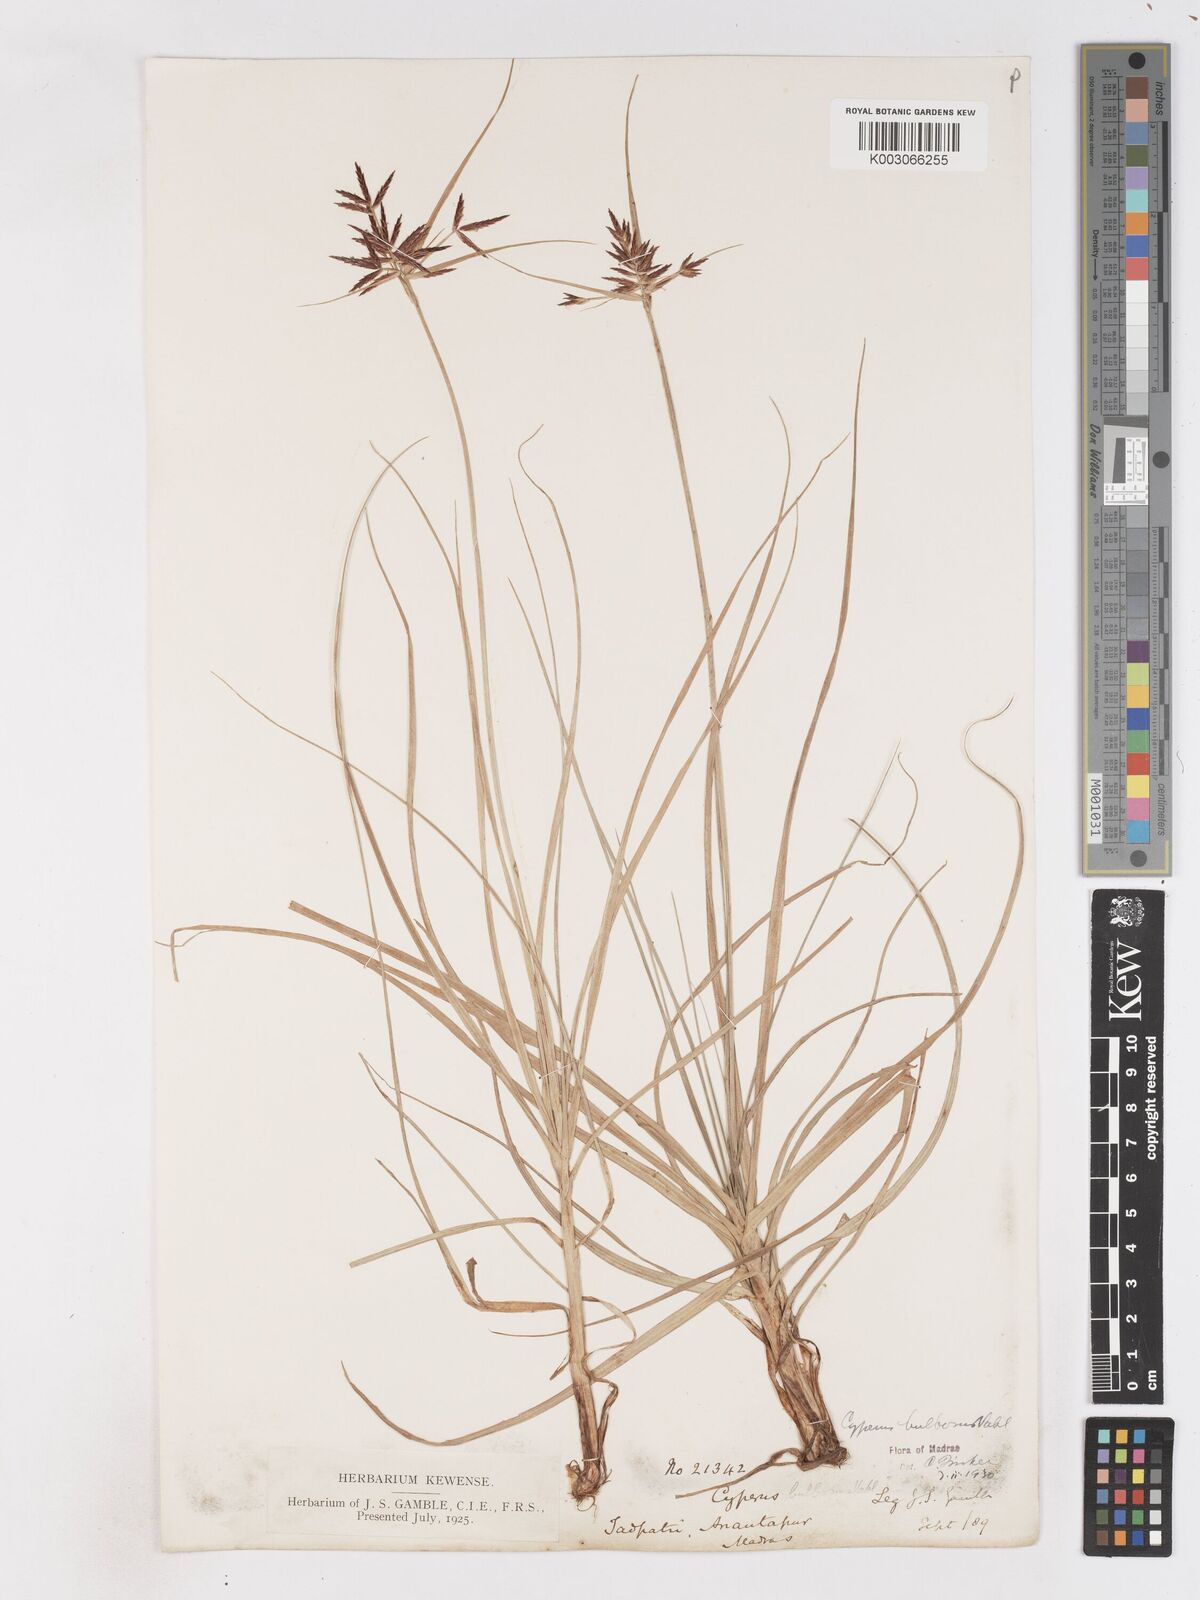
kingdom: Plantae
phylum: Tracheophyta
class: Liliopsida
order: Poales
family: Cyperaceae
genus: Cyperus
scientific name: Cyperus bulbosus
